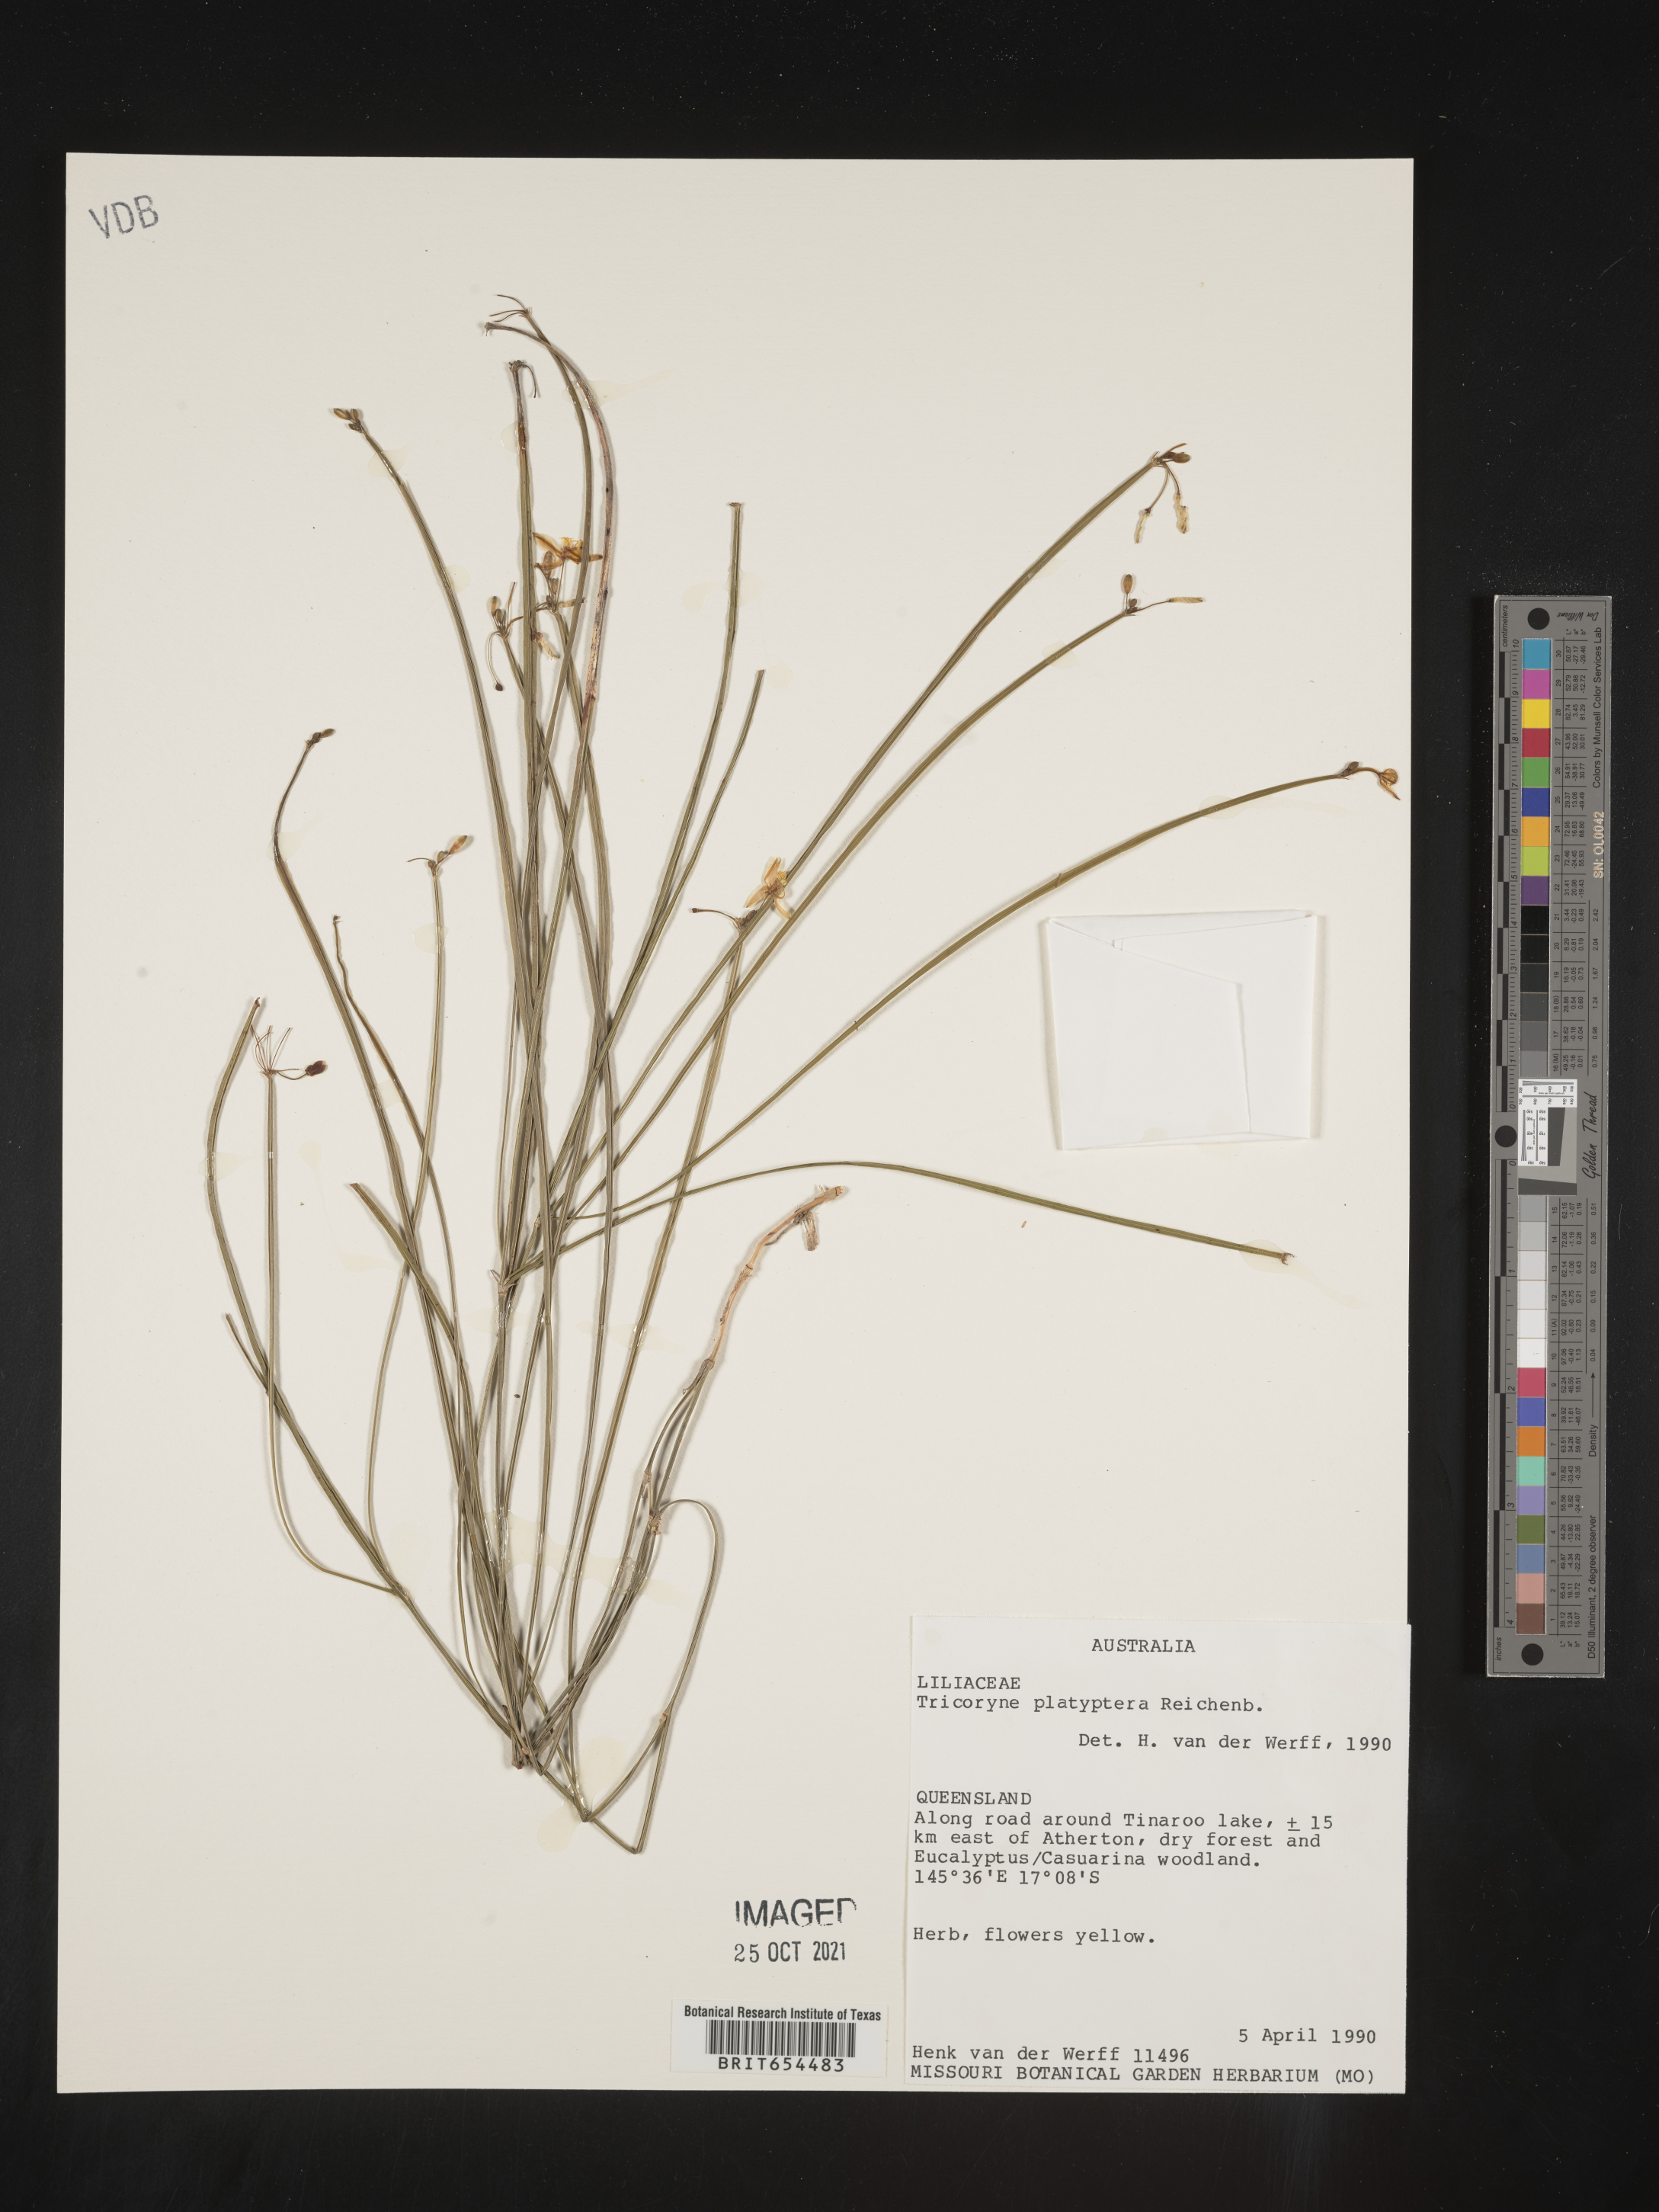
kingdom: Plantae
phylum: Tracheophyta
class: Liliopsida
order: Asparagales
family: Asphodelaceae
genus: Tricoryne
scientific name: Tricoryne platyptera
